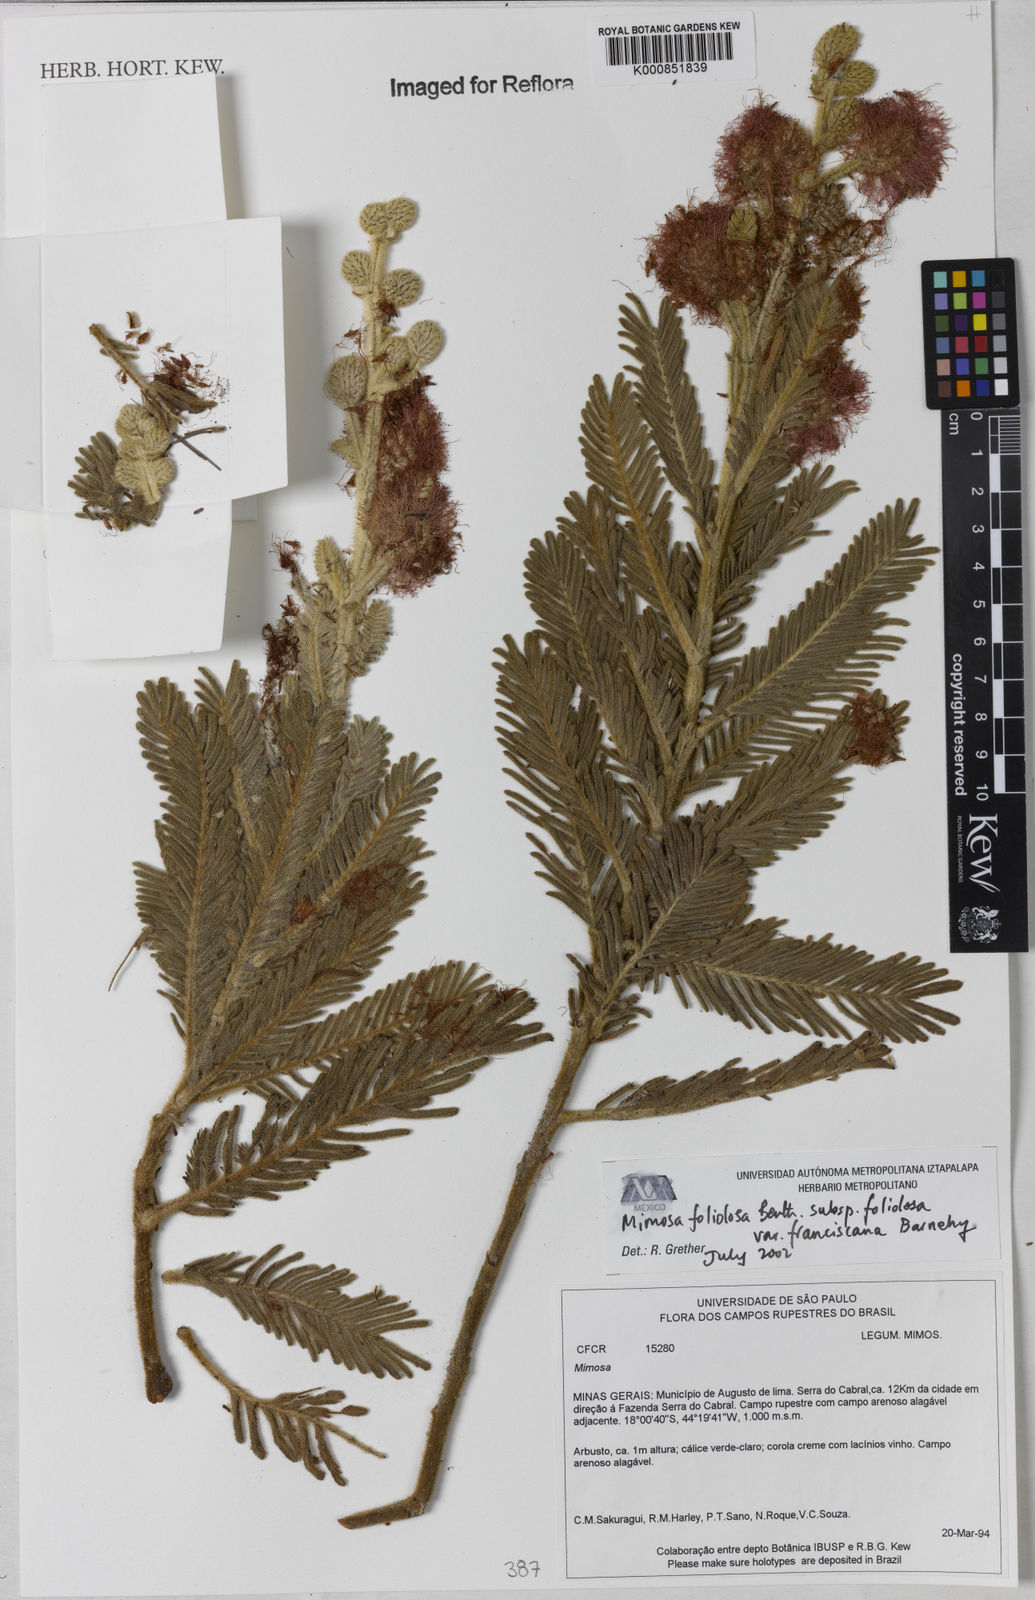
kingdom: Plantae
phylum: Tracheophyta
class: Magnoliopsida
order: Fabales
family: Fabaceae
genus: Mimosa
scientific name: Mimosa foliolosa
